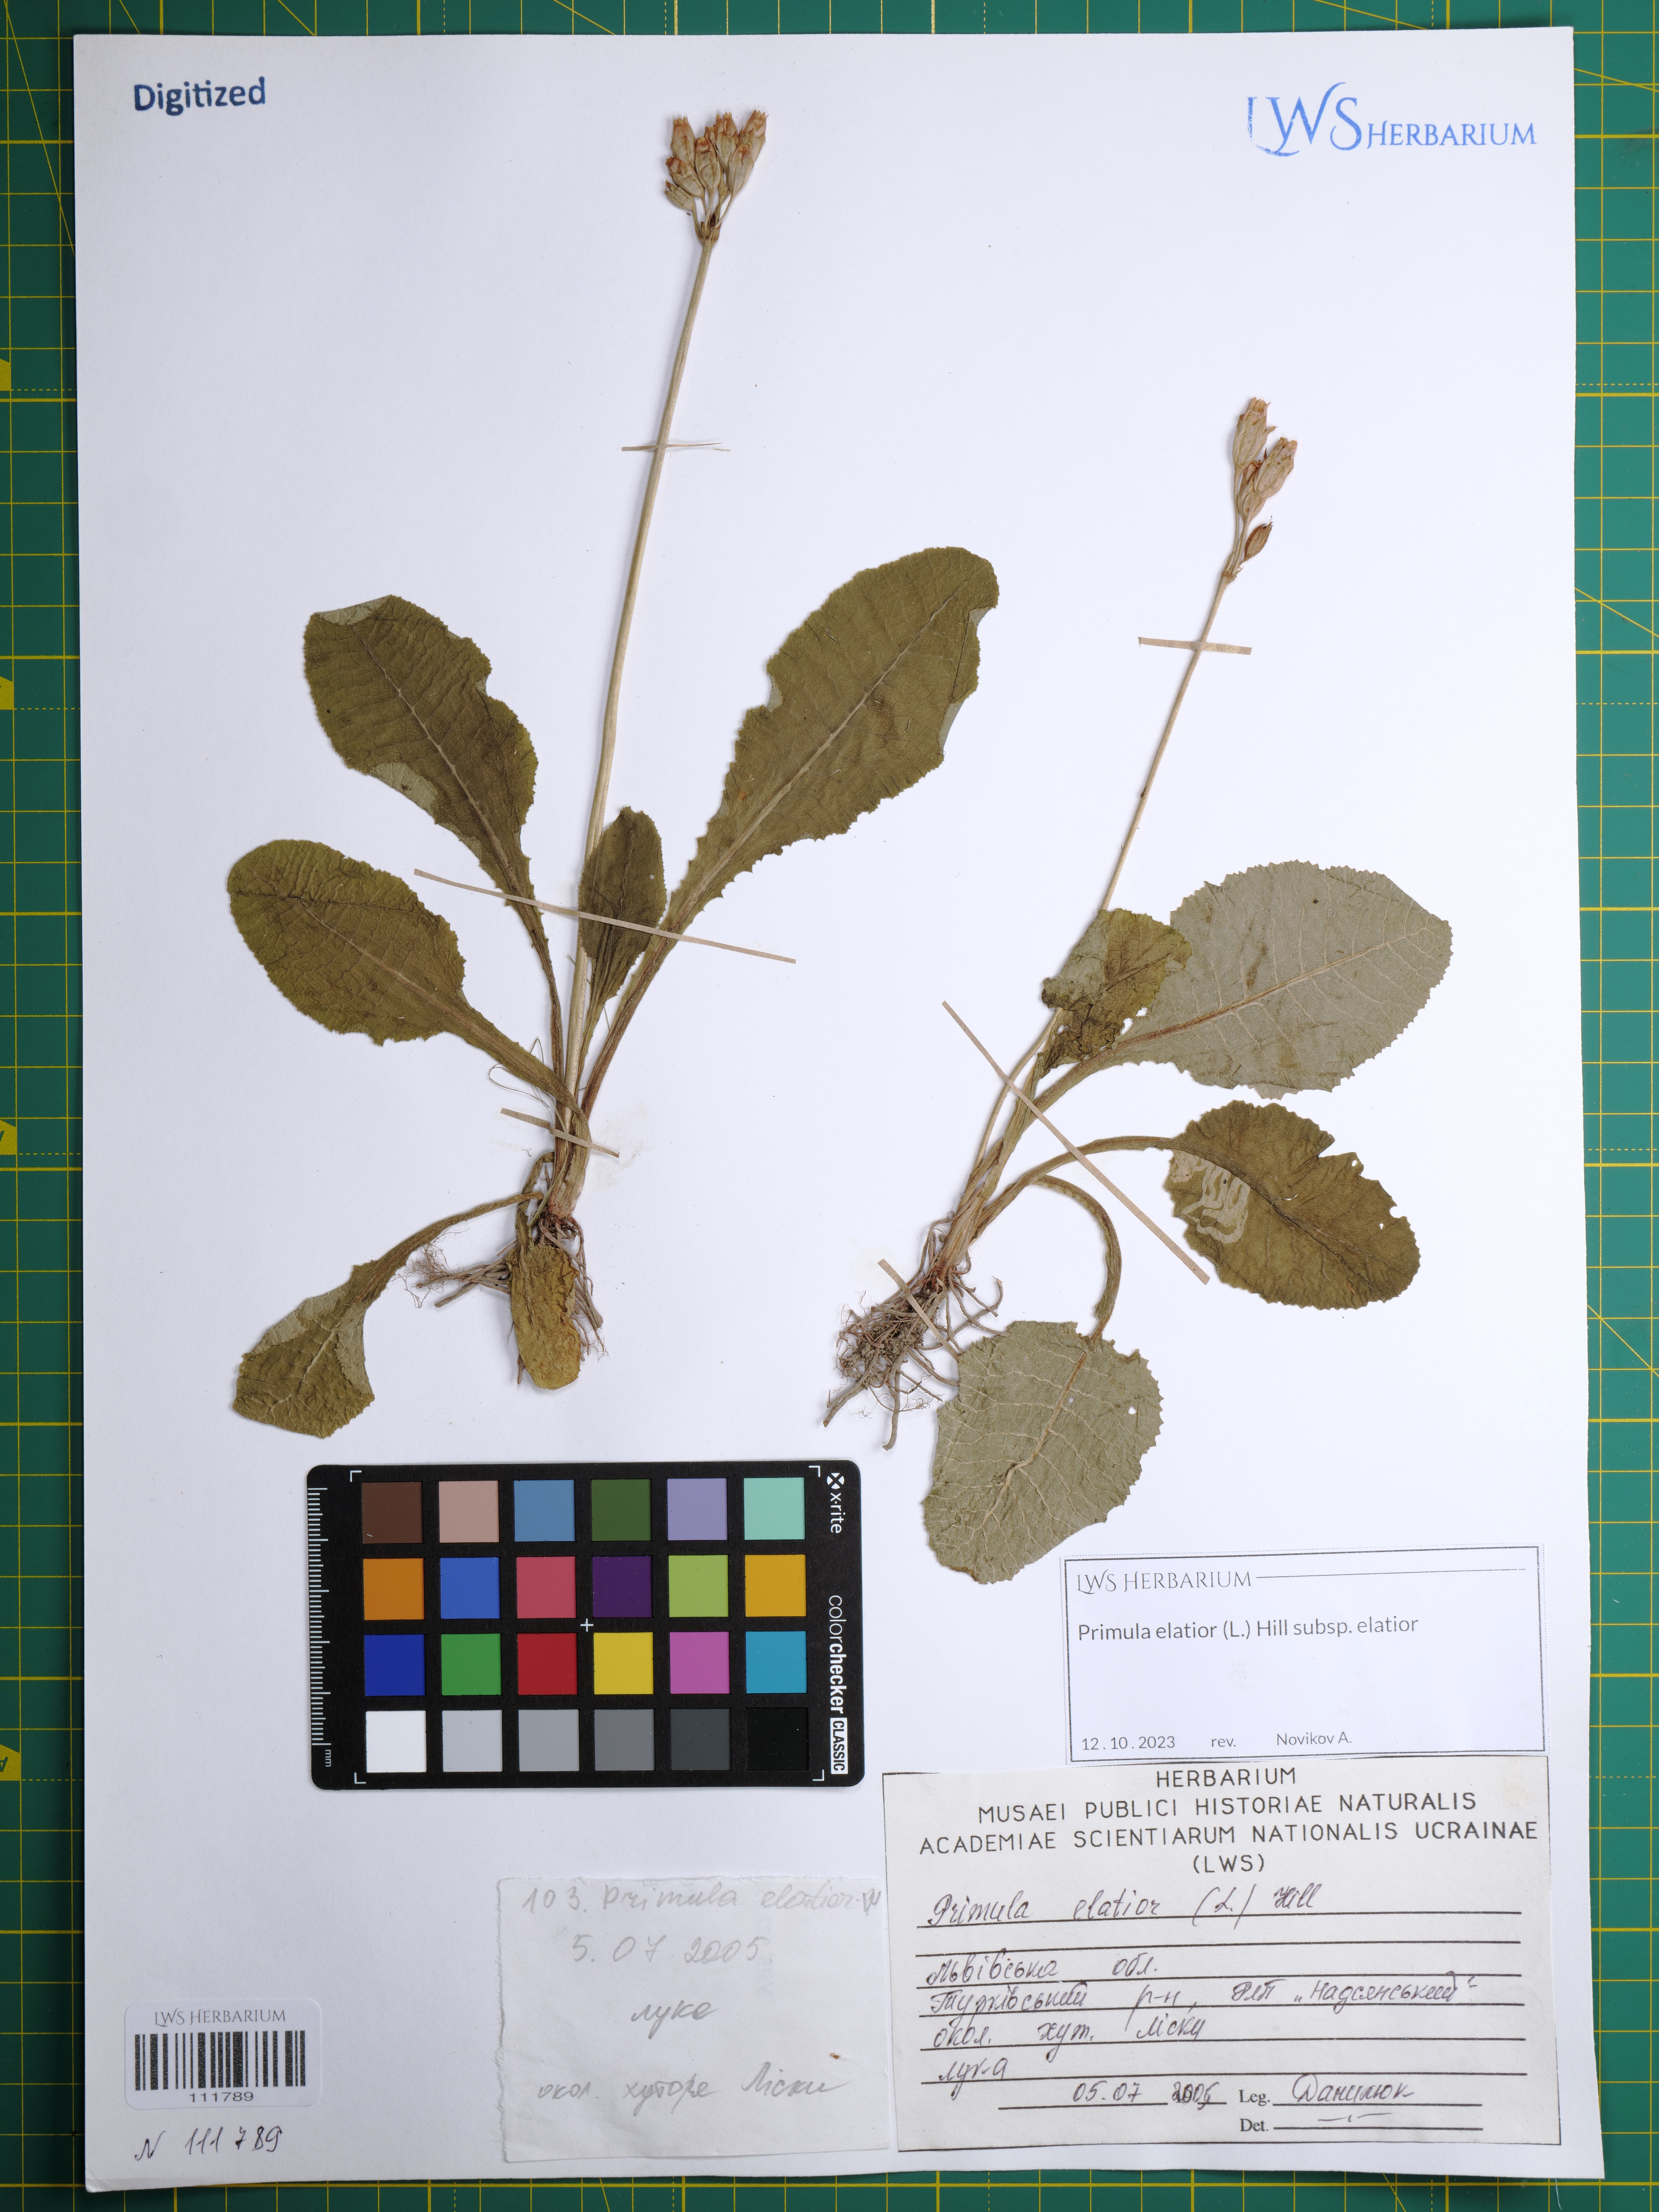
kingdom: Plantae
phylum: Tracheophyta
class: Magnoliopsida
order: Ericales
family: Primulaceae
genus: Primula
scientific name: Primula elatior
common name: Oxlip
